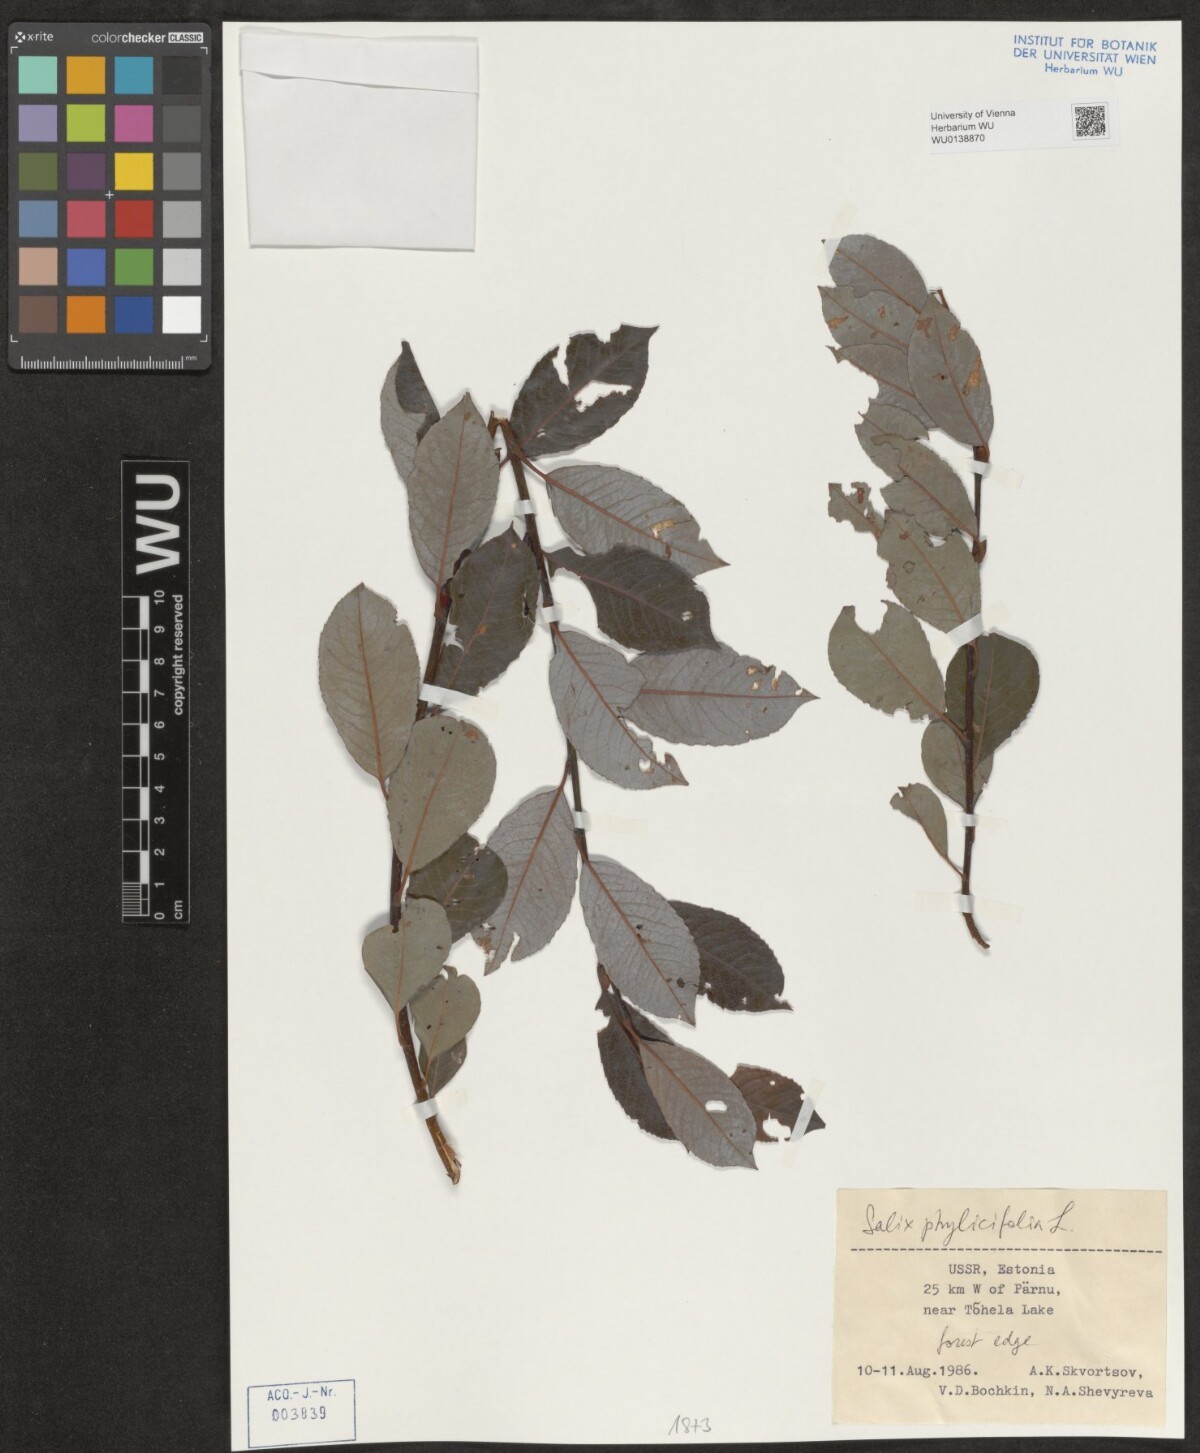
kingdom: Plantae
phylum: Tracheophyta
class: Magnoliopsida
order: Malpighiales
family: Salicaceae
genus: Salix
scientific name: Salix phylicifolia
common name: Tea-leaved willow
